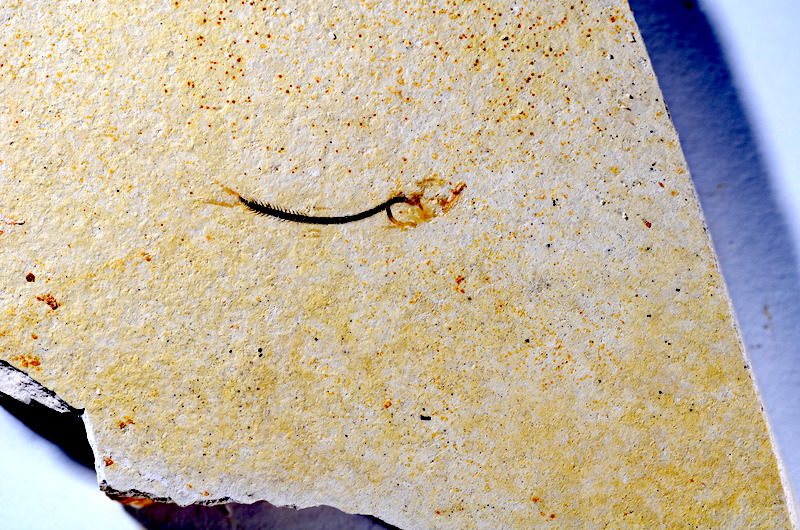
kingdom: Animalia
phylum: Chordata
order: Salmoniformes
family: Orthogonikleithridae
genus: Orthogonikleithrus
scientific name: Orthogonikleithrus hoelli
